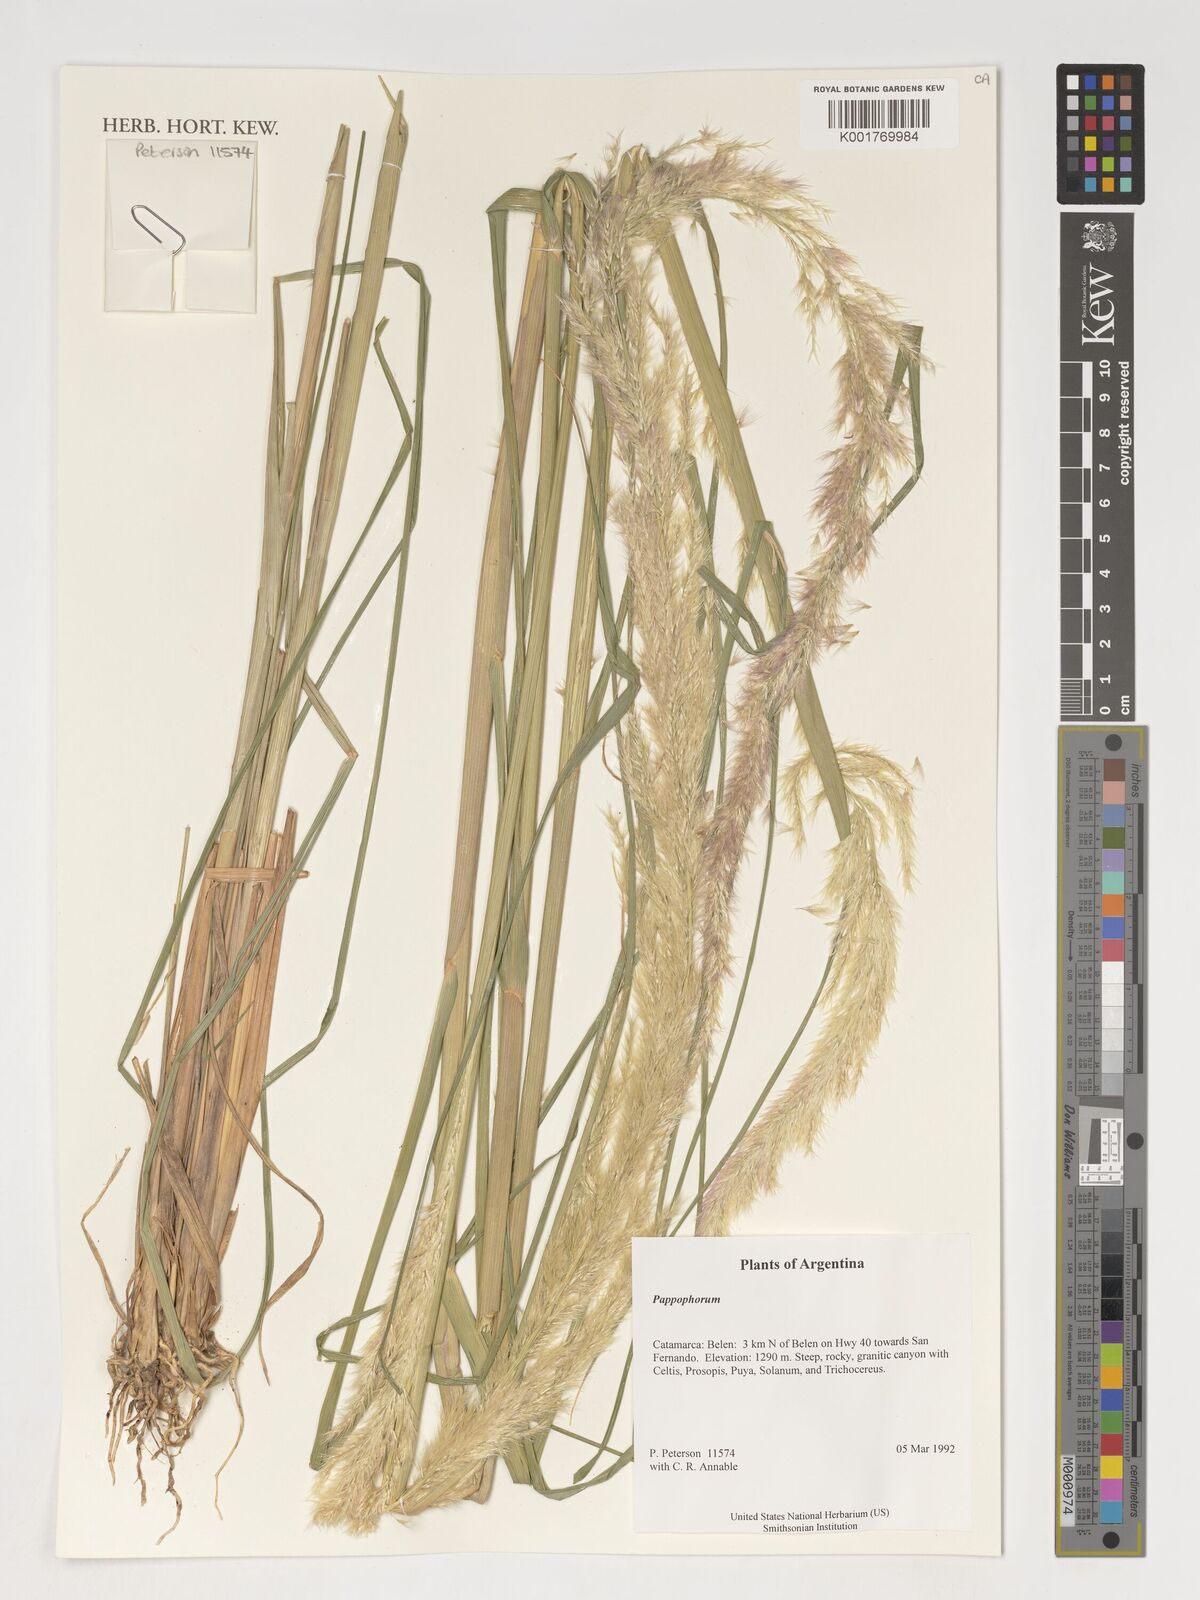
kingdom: Plantae
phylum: Tracheophyta
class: Liliopsida
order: Poales
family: Poaceae
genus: Pappophorum
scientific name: Pappophorum
